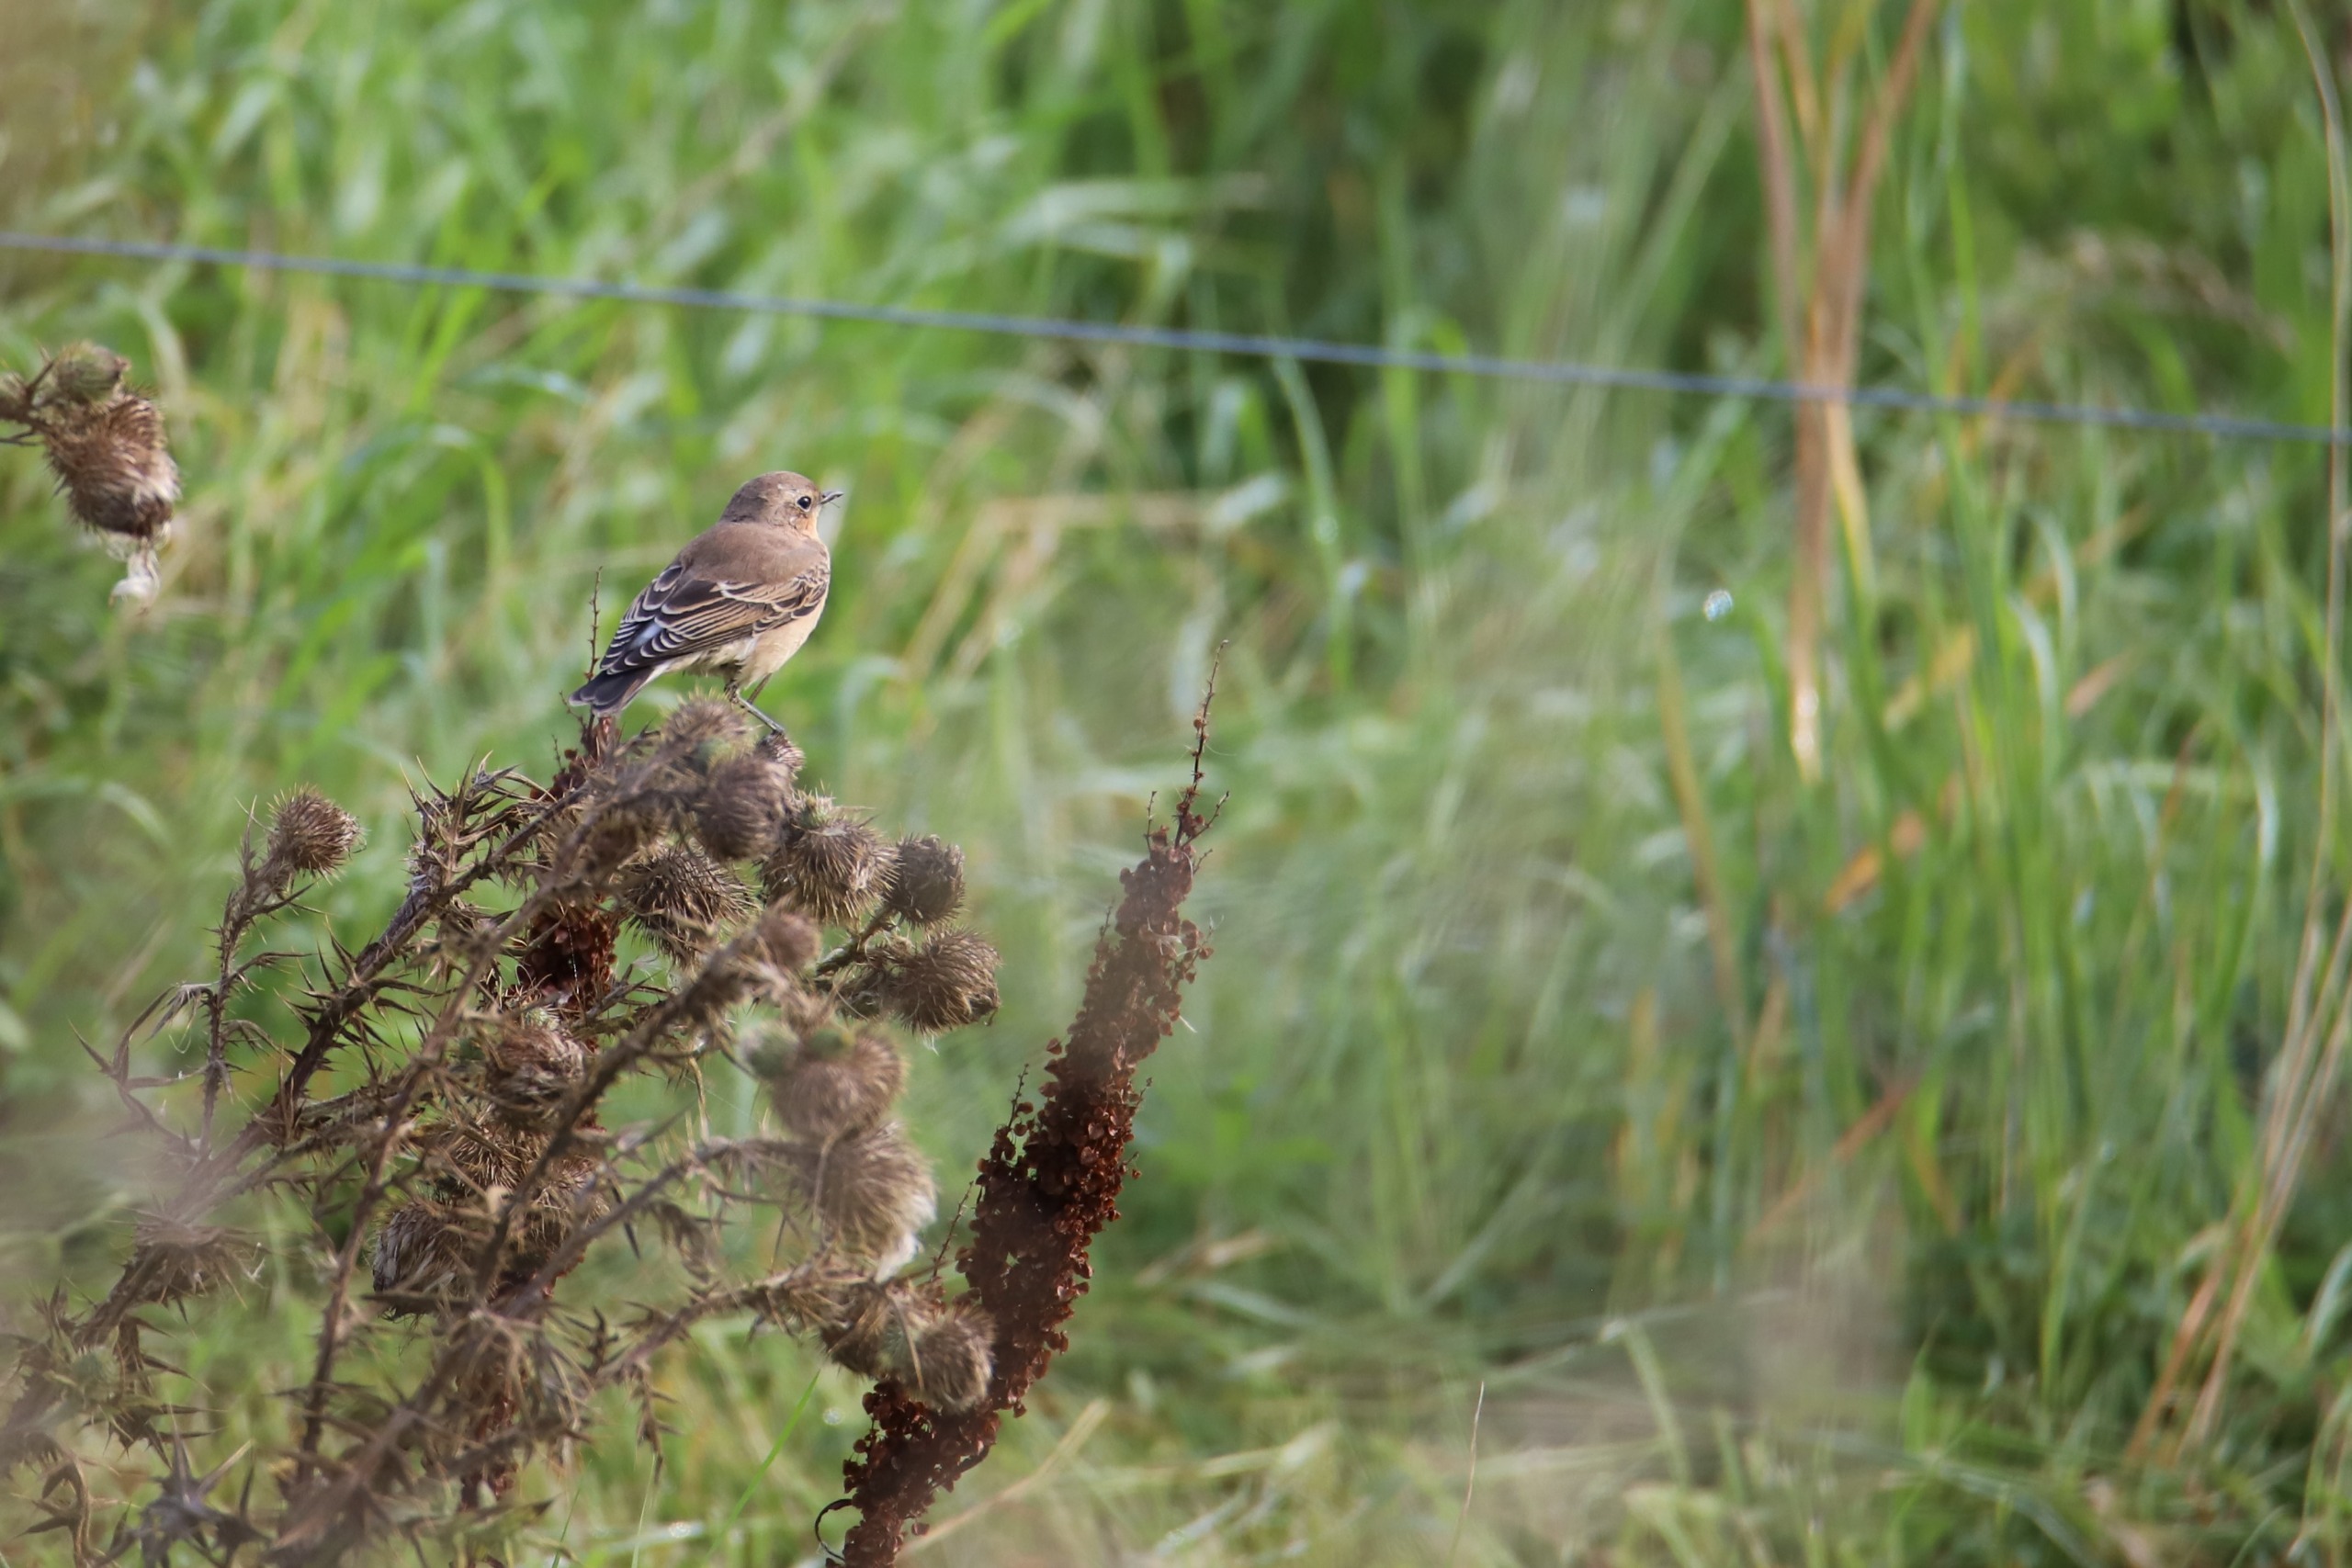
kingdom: Animalia
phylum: Chordata
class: Aves
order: Passeriformes
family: Muscicapidae
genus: Oenanthe
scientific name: Oenanthe oenanthe
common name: Stenpikker
